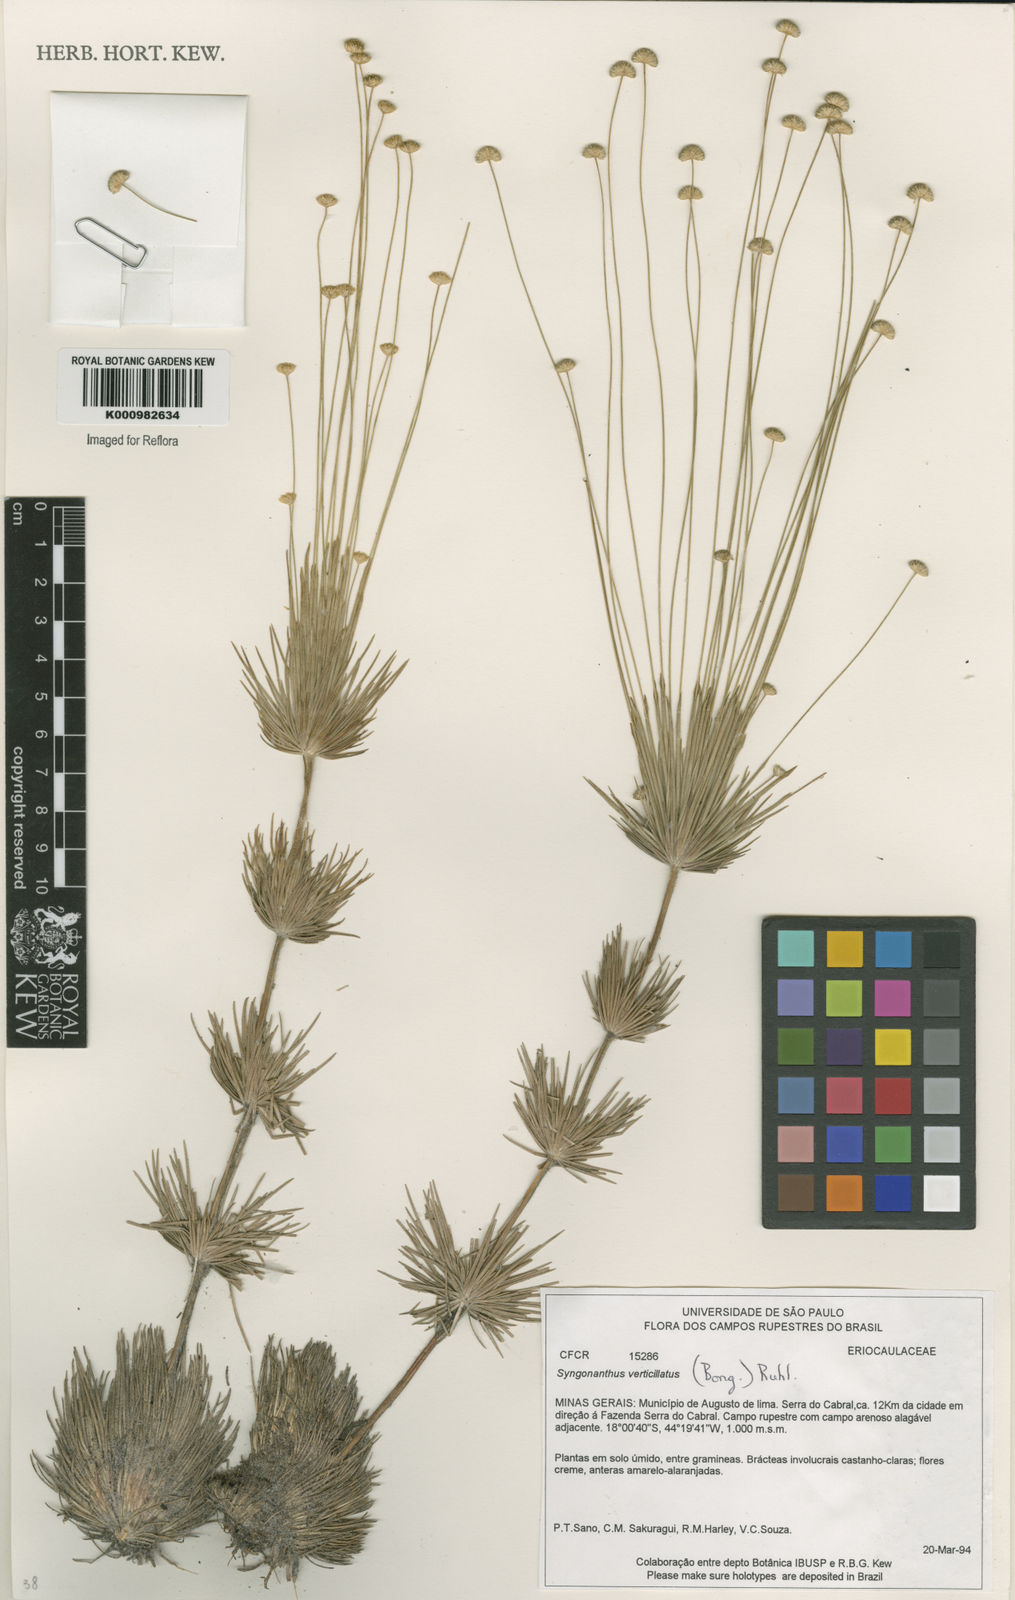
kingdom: Plantae
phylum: Tracheophyta
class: Liliopsida
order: Poales
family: Eriocaulaceae
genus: Syngonanthus
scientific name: Syngonanthus verticillatus
